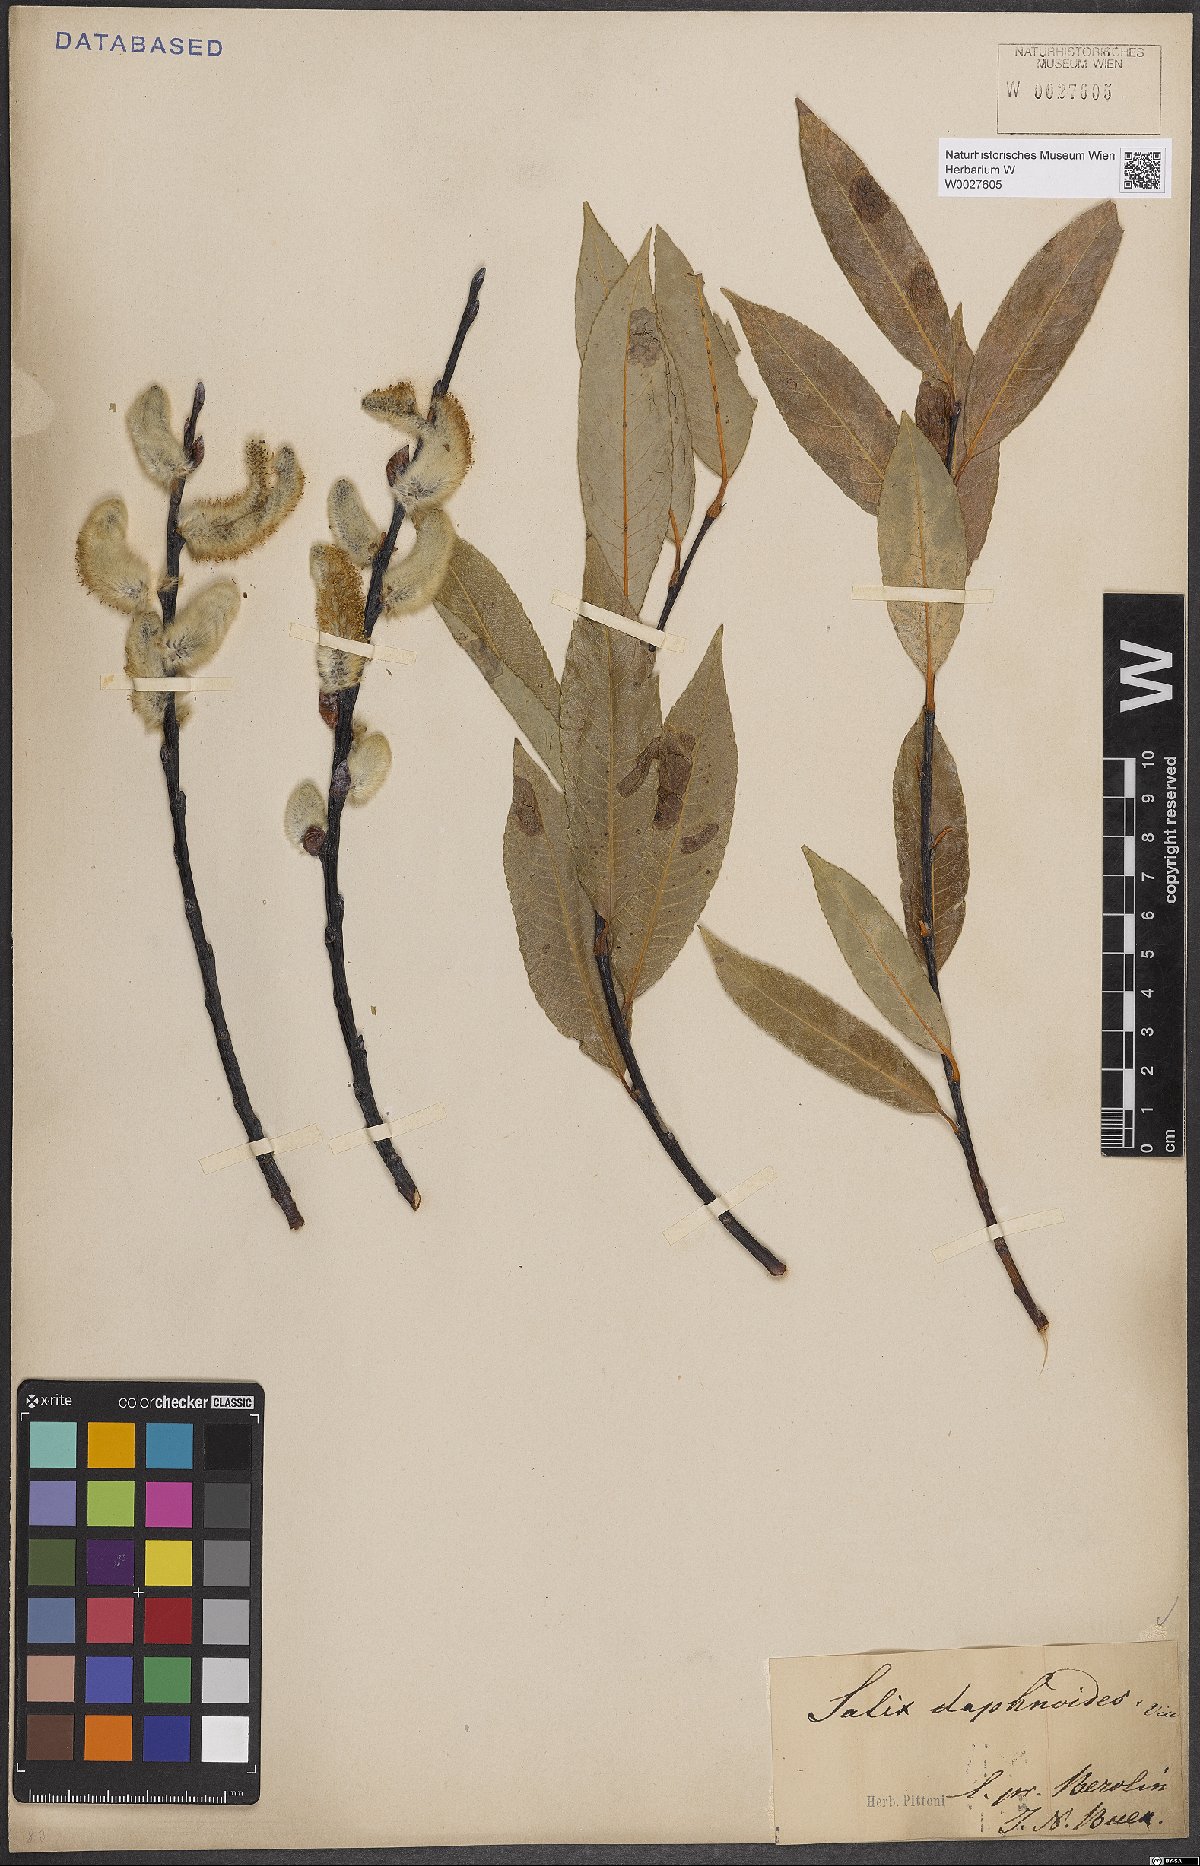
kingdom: Plantae
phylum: Tracheophyta
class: Magnoliopsida
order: Malpighiales
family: Salicaceae
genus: Salix
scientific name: Salix daphnoides
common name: European violet-willow
